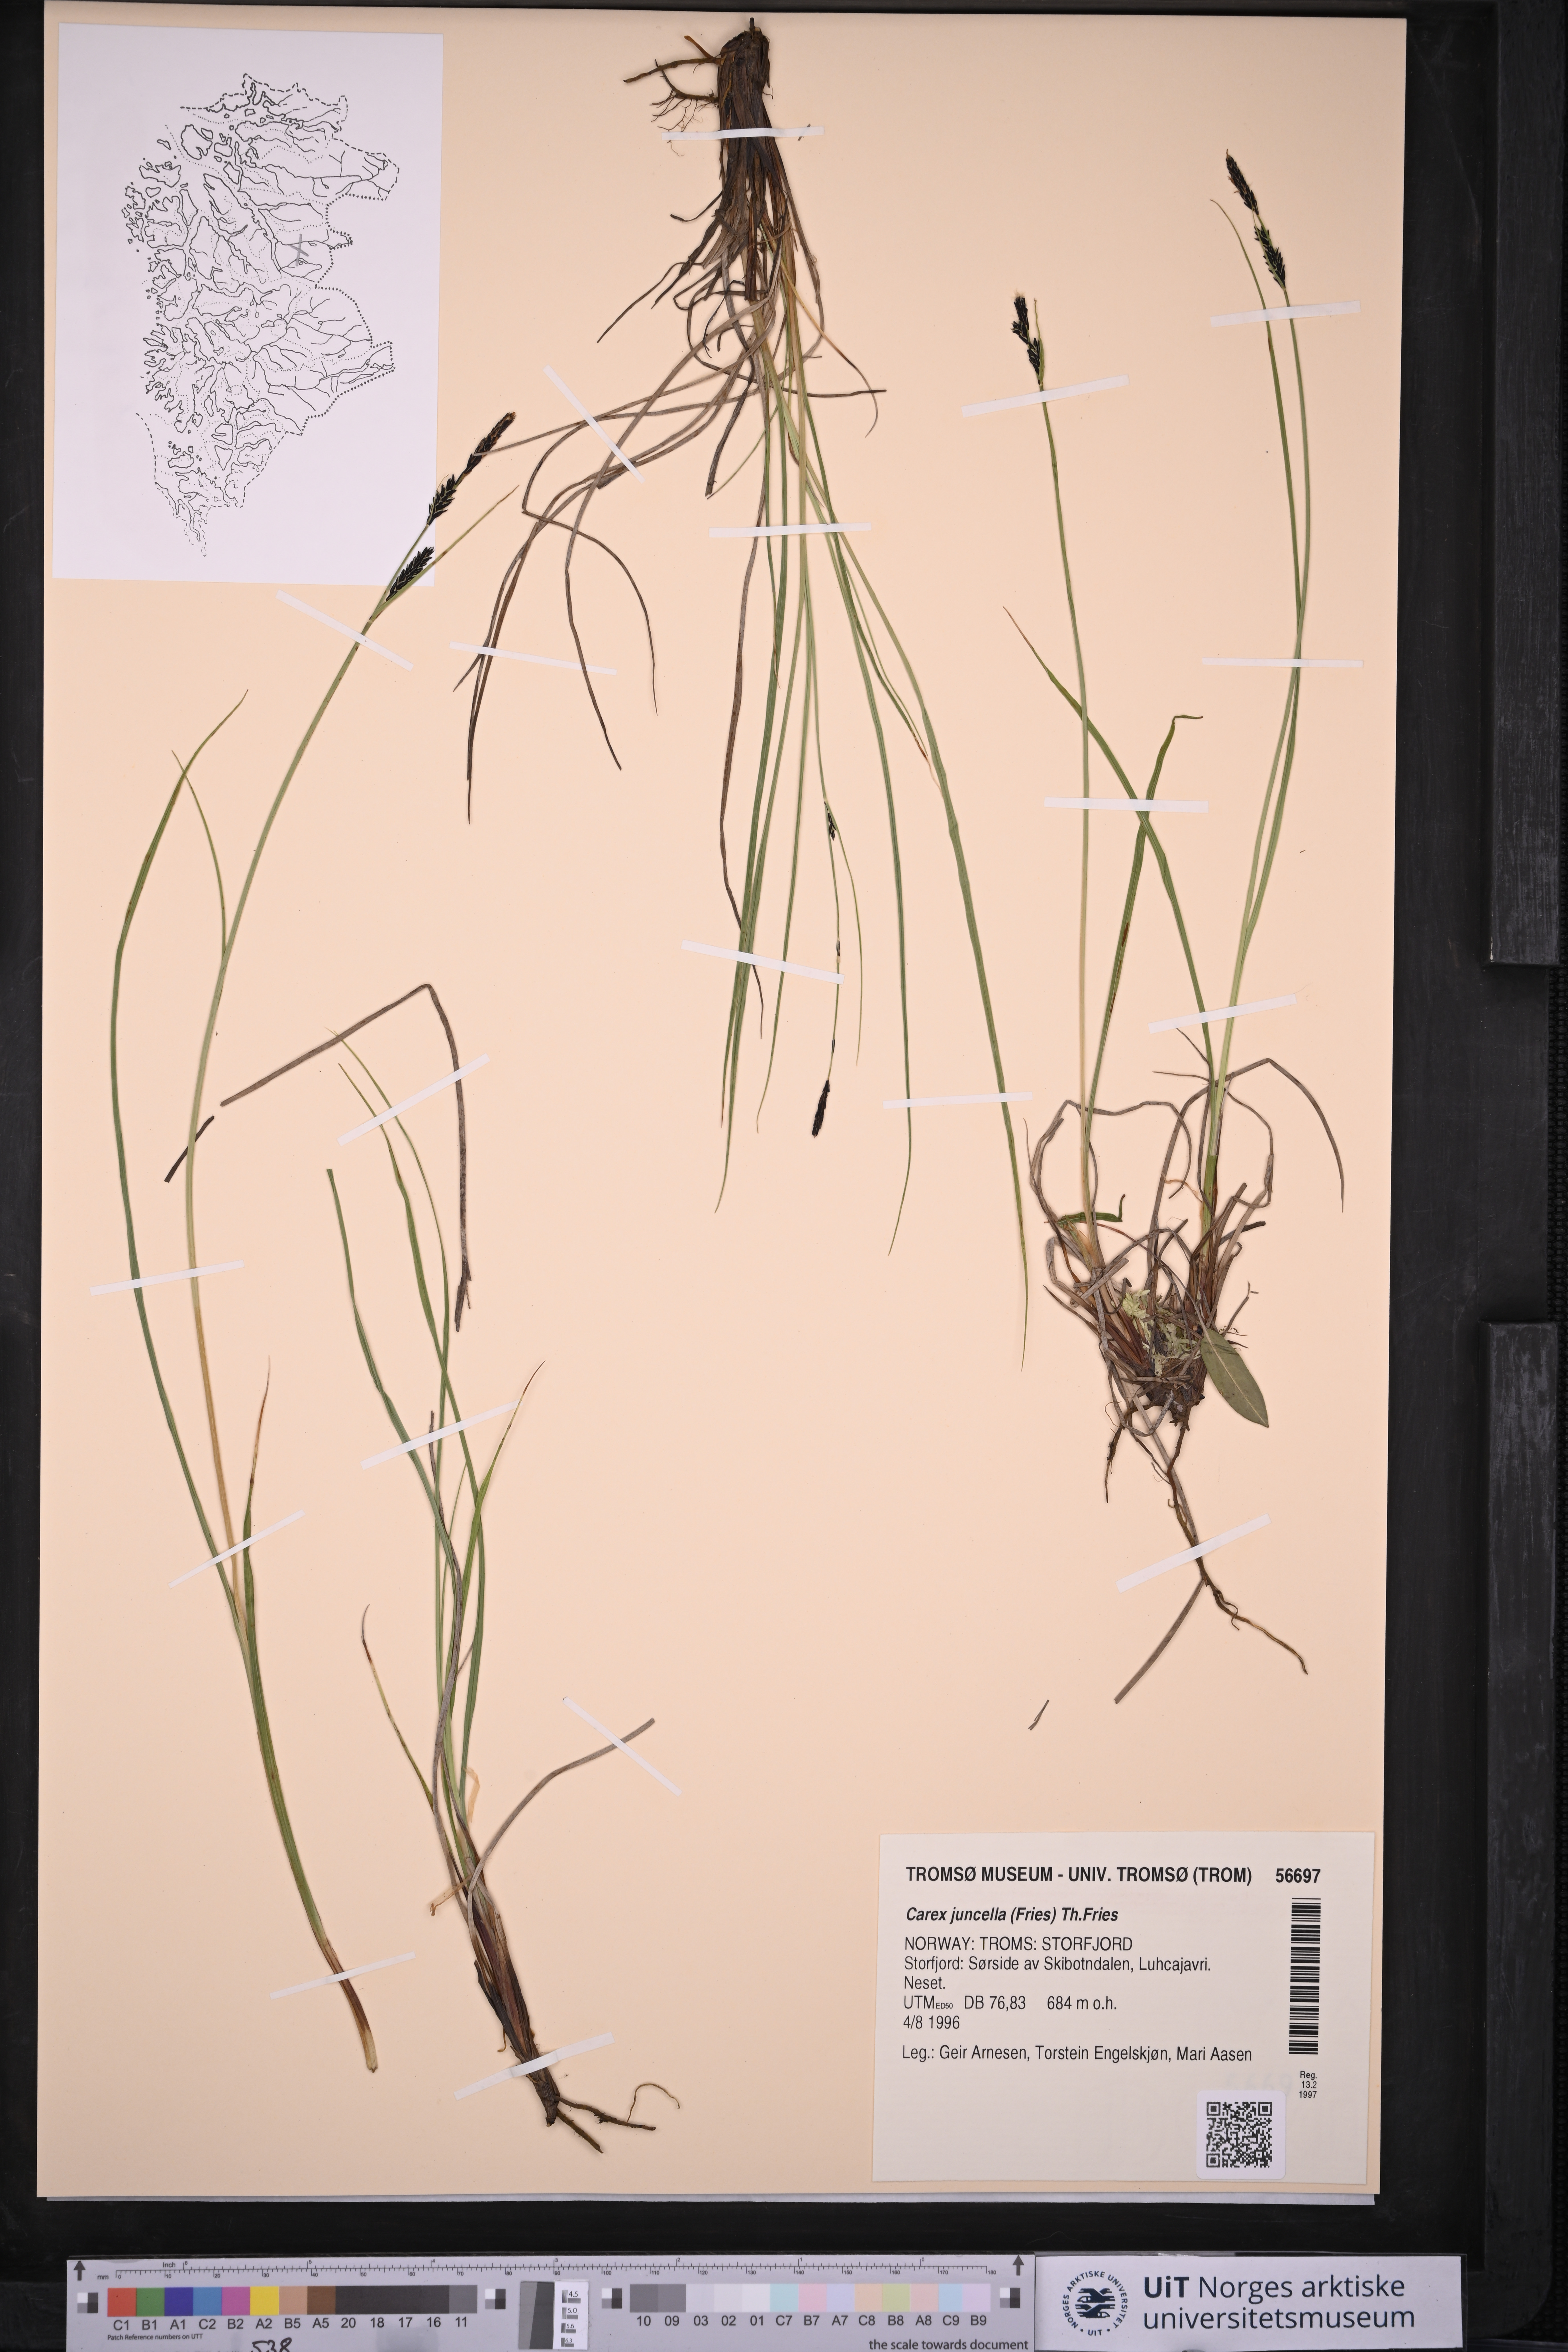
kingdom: Plantae
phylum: Tracheophyta
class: Liliopsida
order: Poales
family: Cyperaceae
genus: Carex
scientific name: Carex nigra
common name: Common sedge
